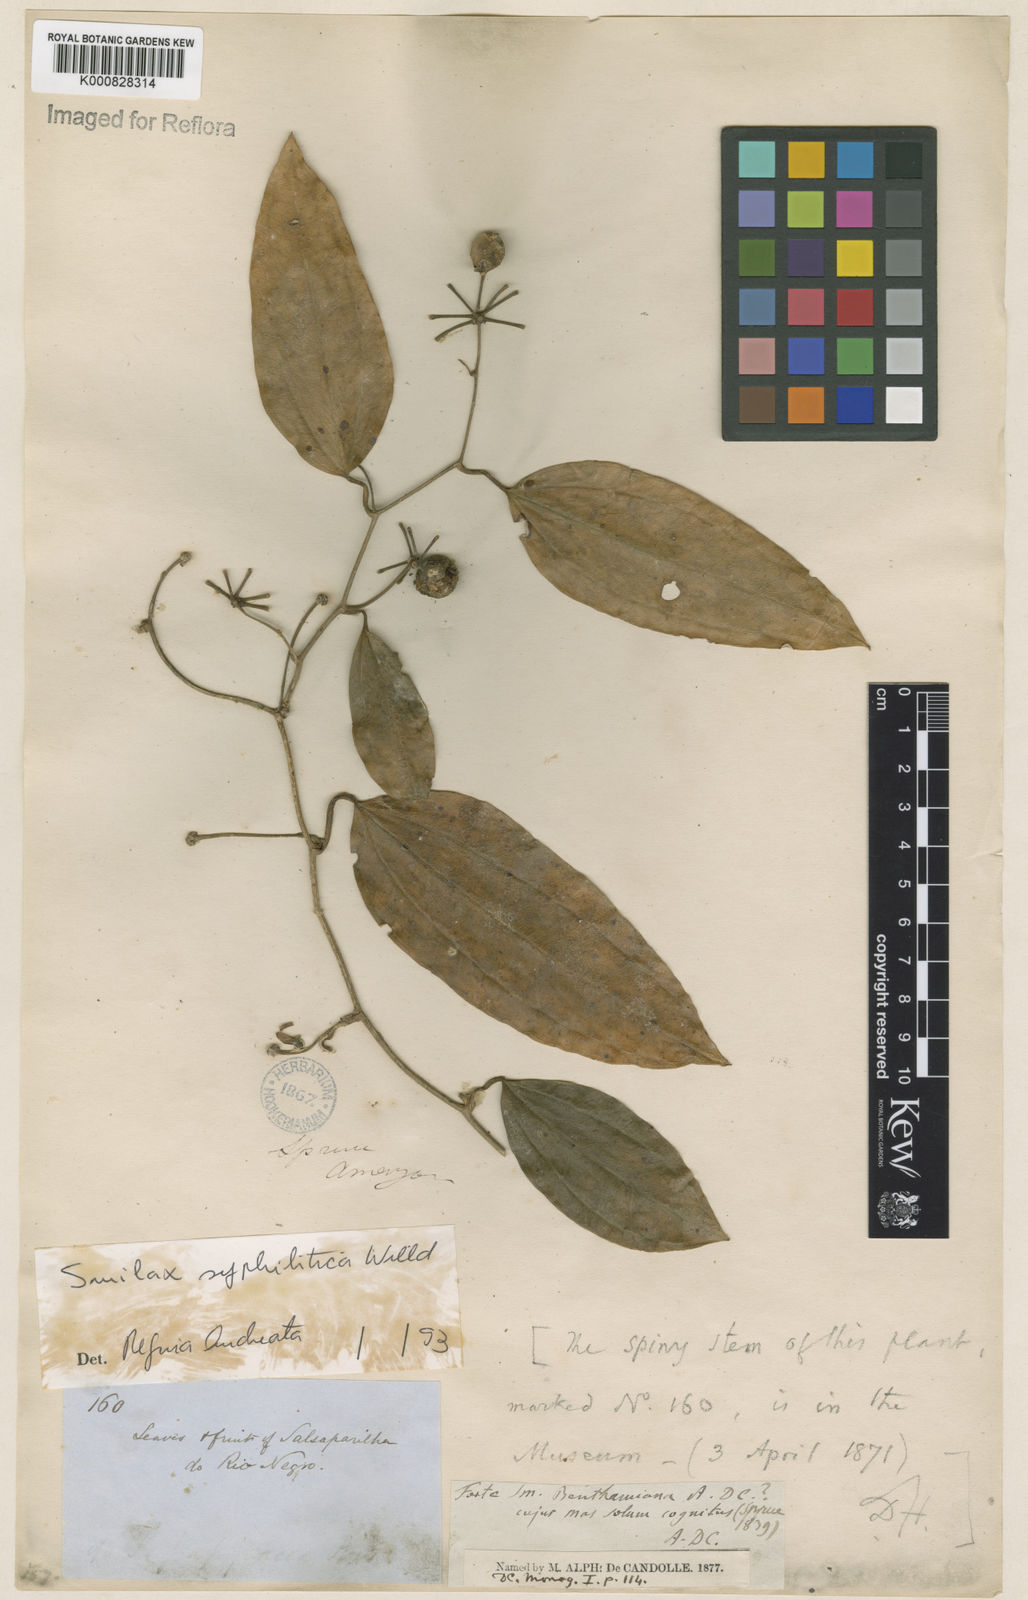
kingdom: Plantae
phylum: Tracheophyta
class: Liliopsida
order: Liliales
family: Smilacaceae
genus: Smilax
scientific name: Smilax siphilitica
